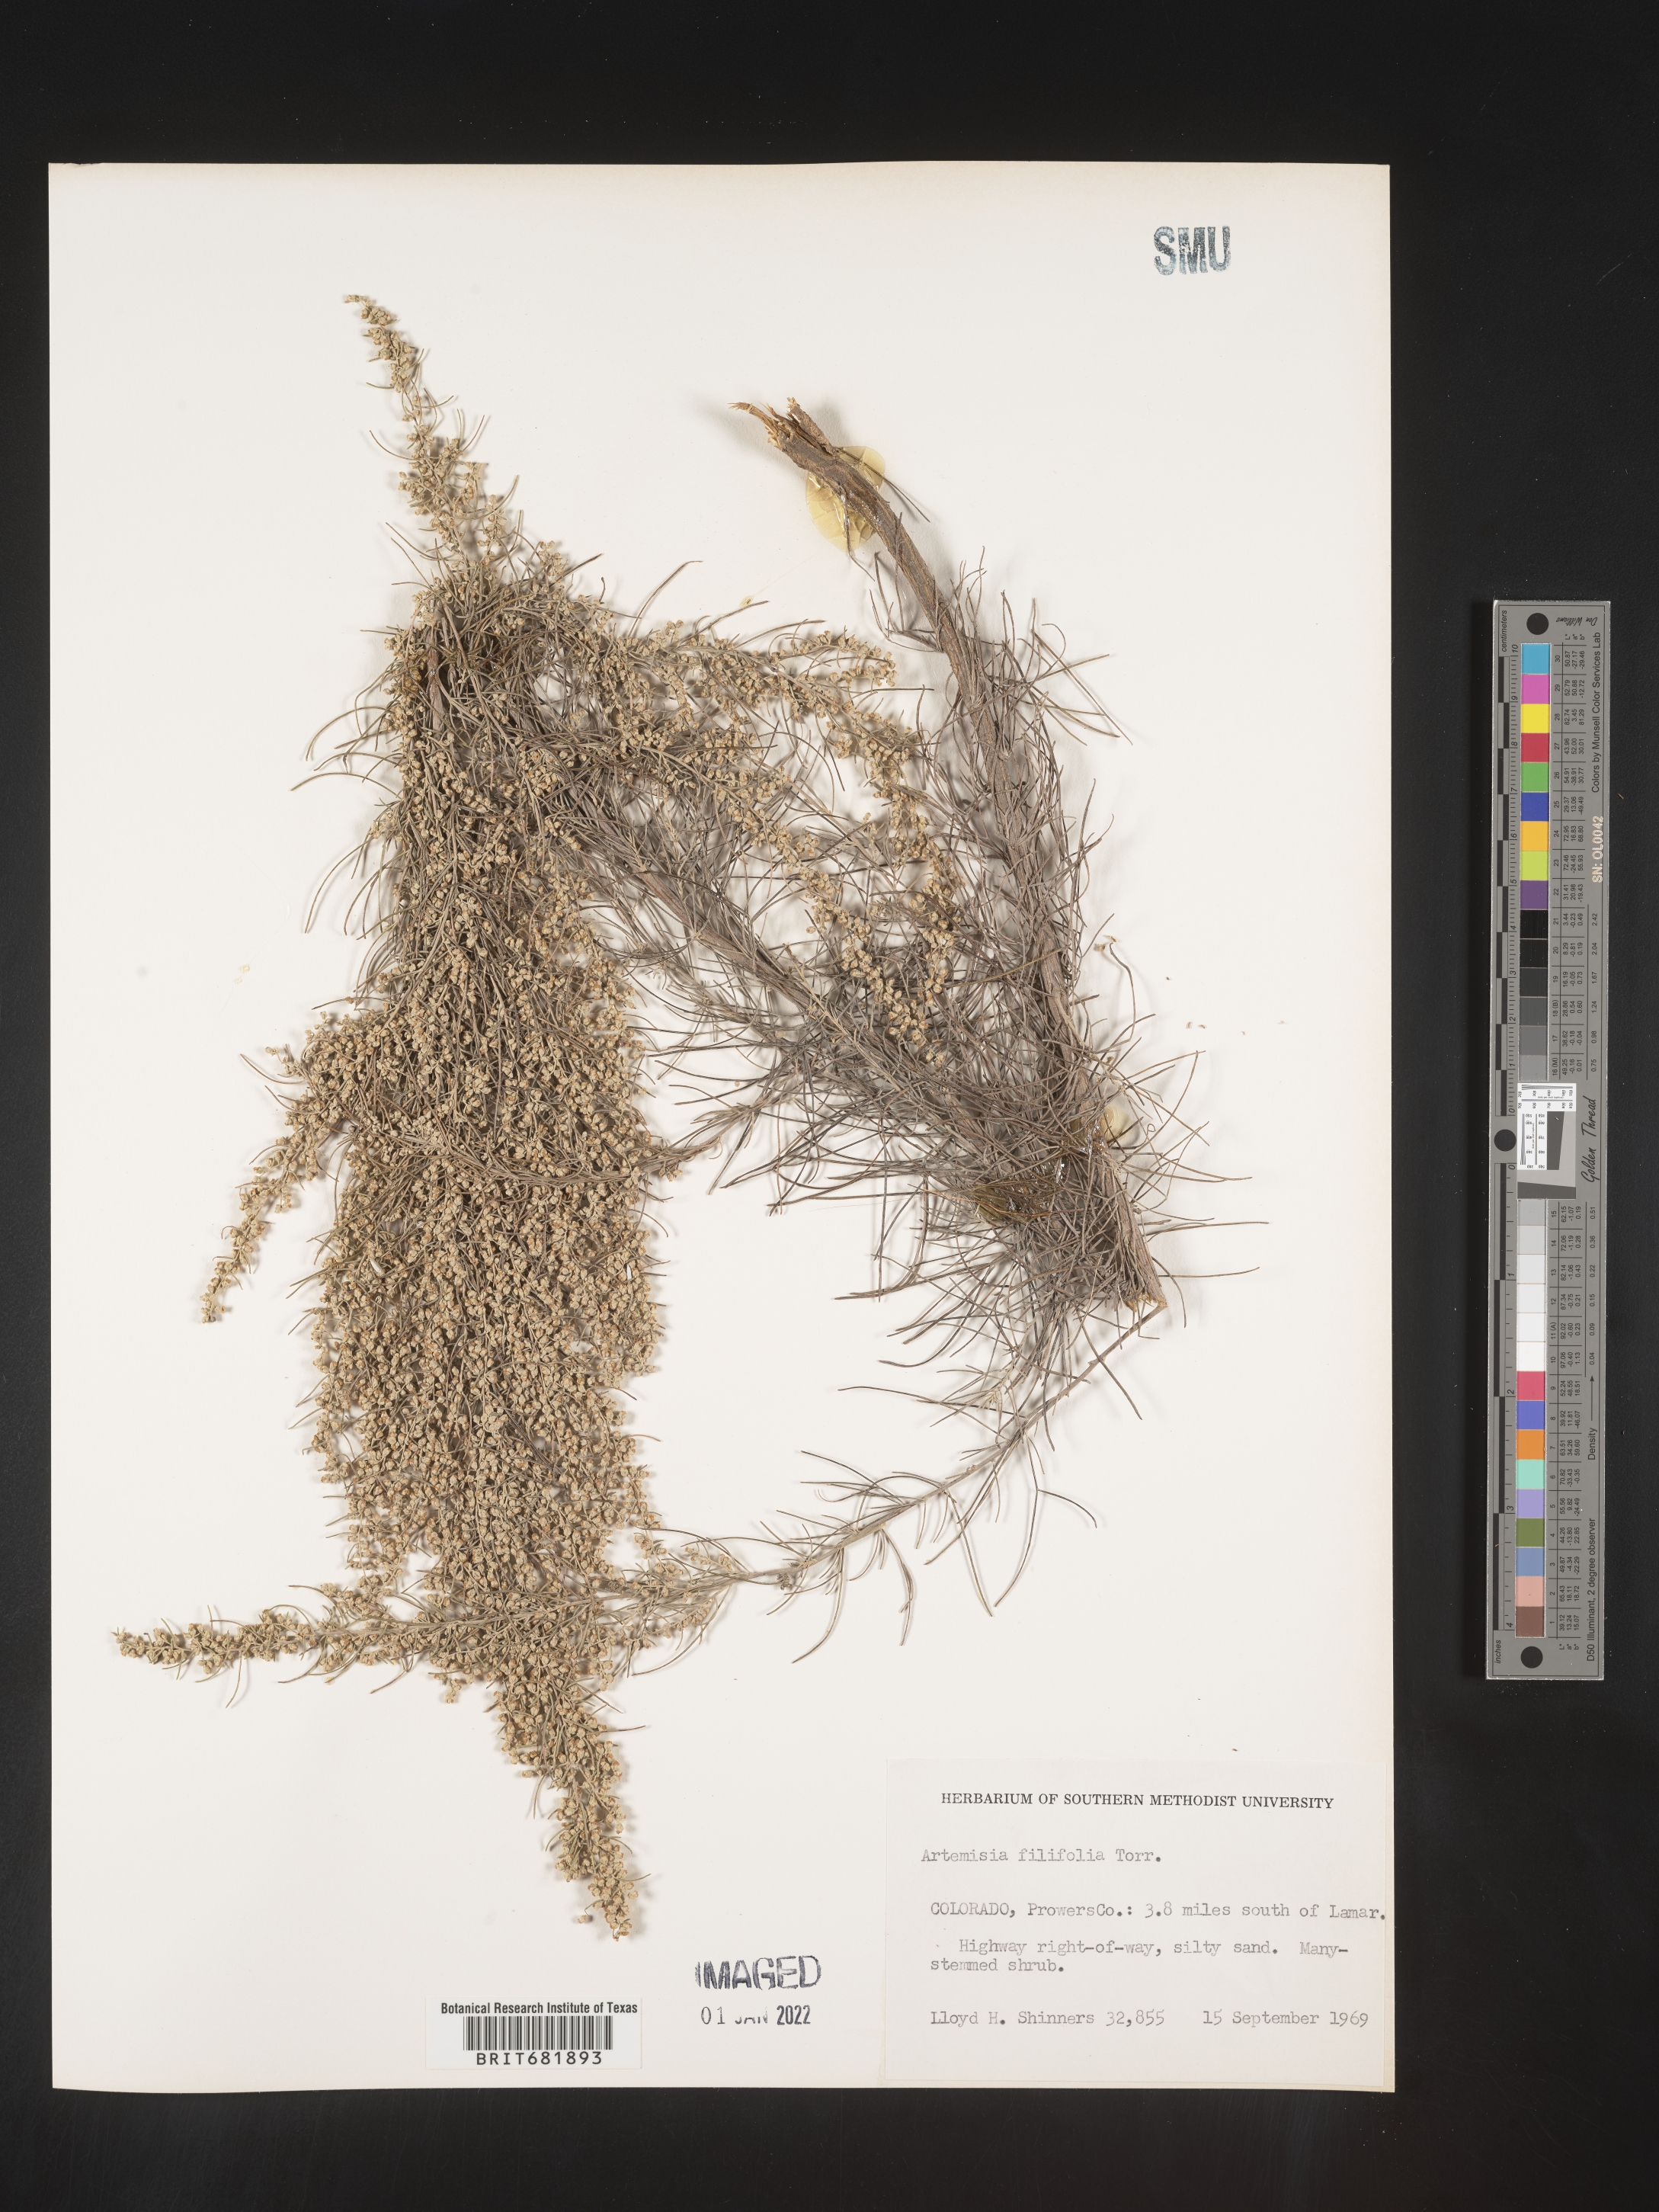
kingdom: Plantae
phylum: Tracheophyta
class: Magnoliopsida
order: Asterales
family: Asteraceae
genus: Artemisia
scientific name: Artemisia filifolia
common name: Sand-sage
